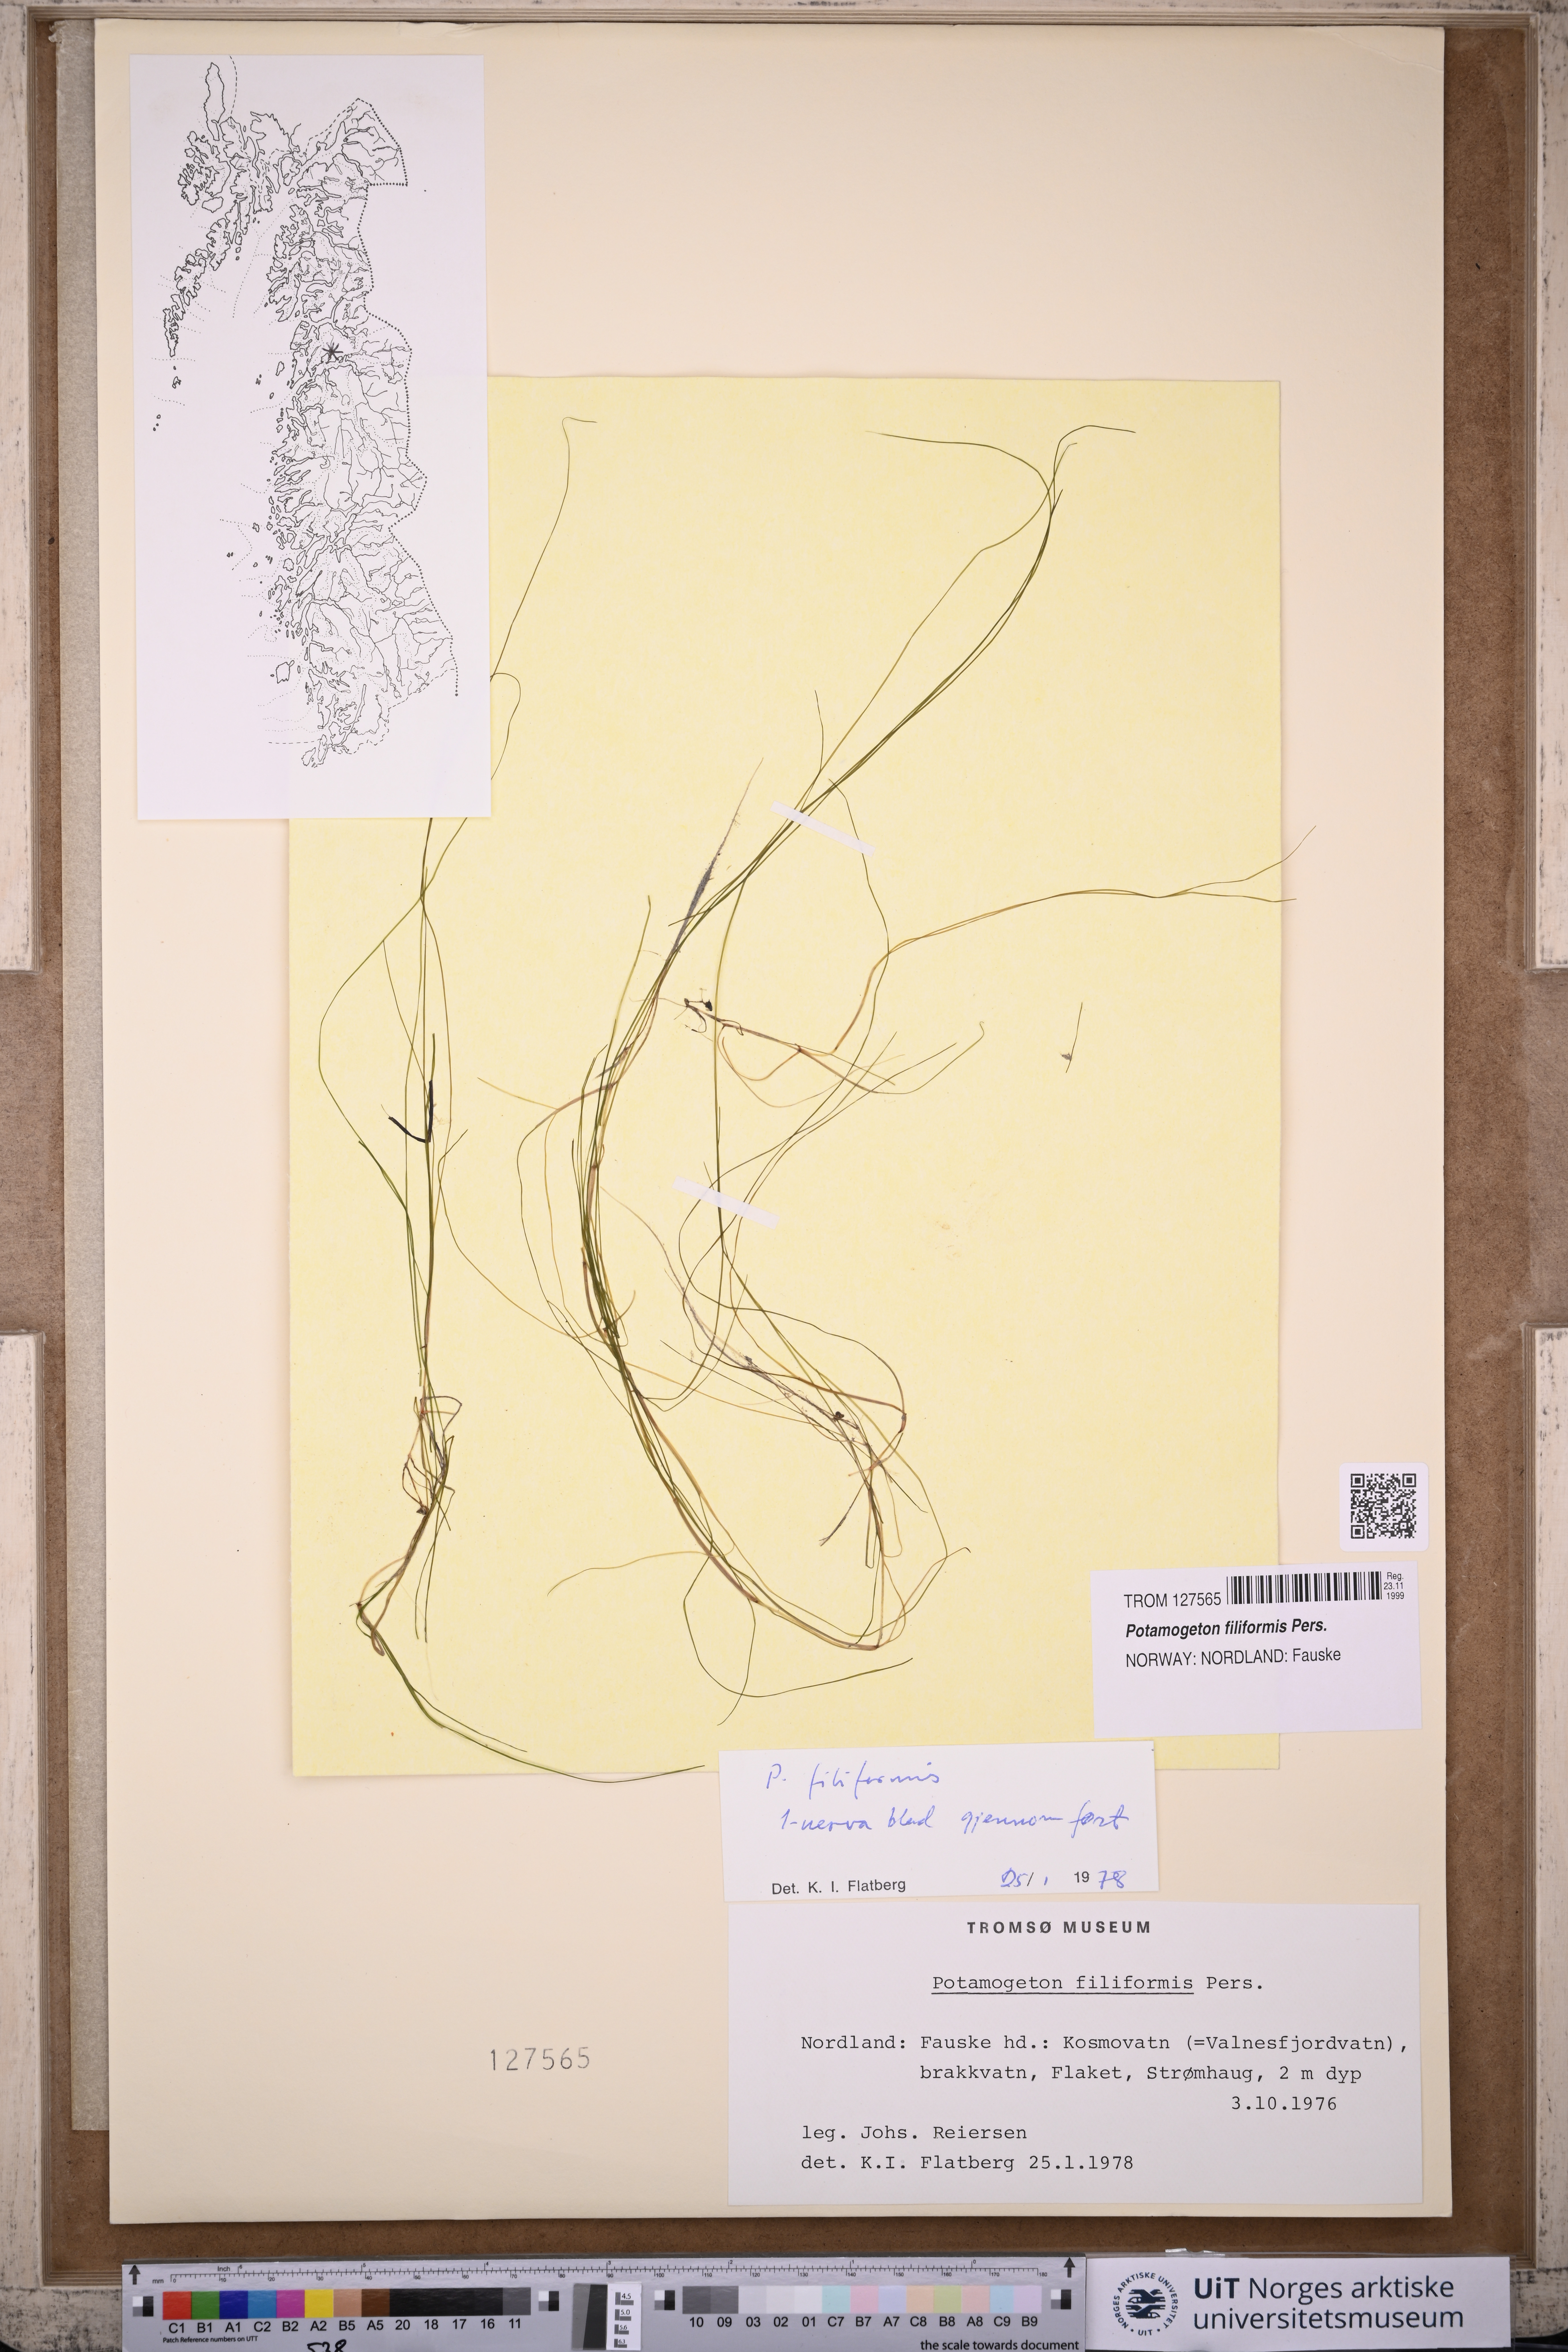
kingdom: Plantae
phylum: Tracheophyta
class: Liliopsida
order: Alismatales
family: Potamogetonaceae
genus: Stuckenia
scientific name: Stuckenia filiformis
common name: Alpine thread-leaved pondweed
